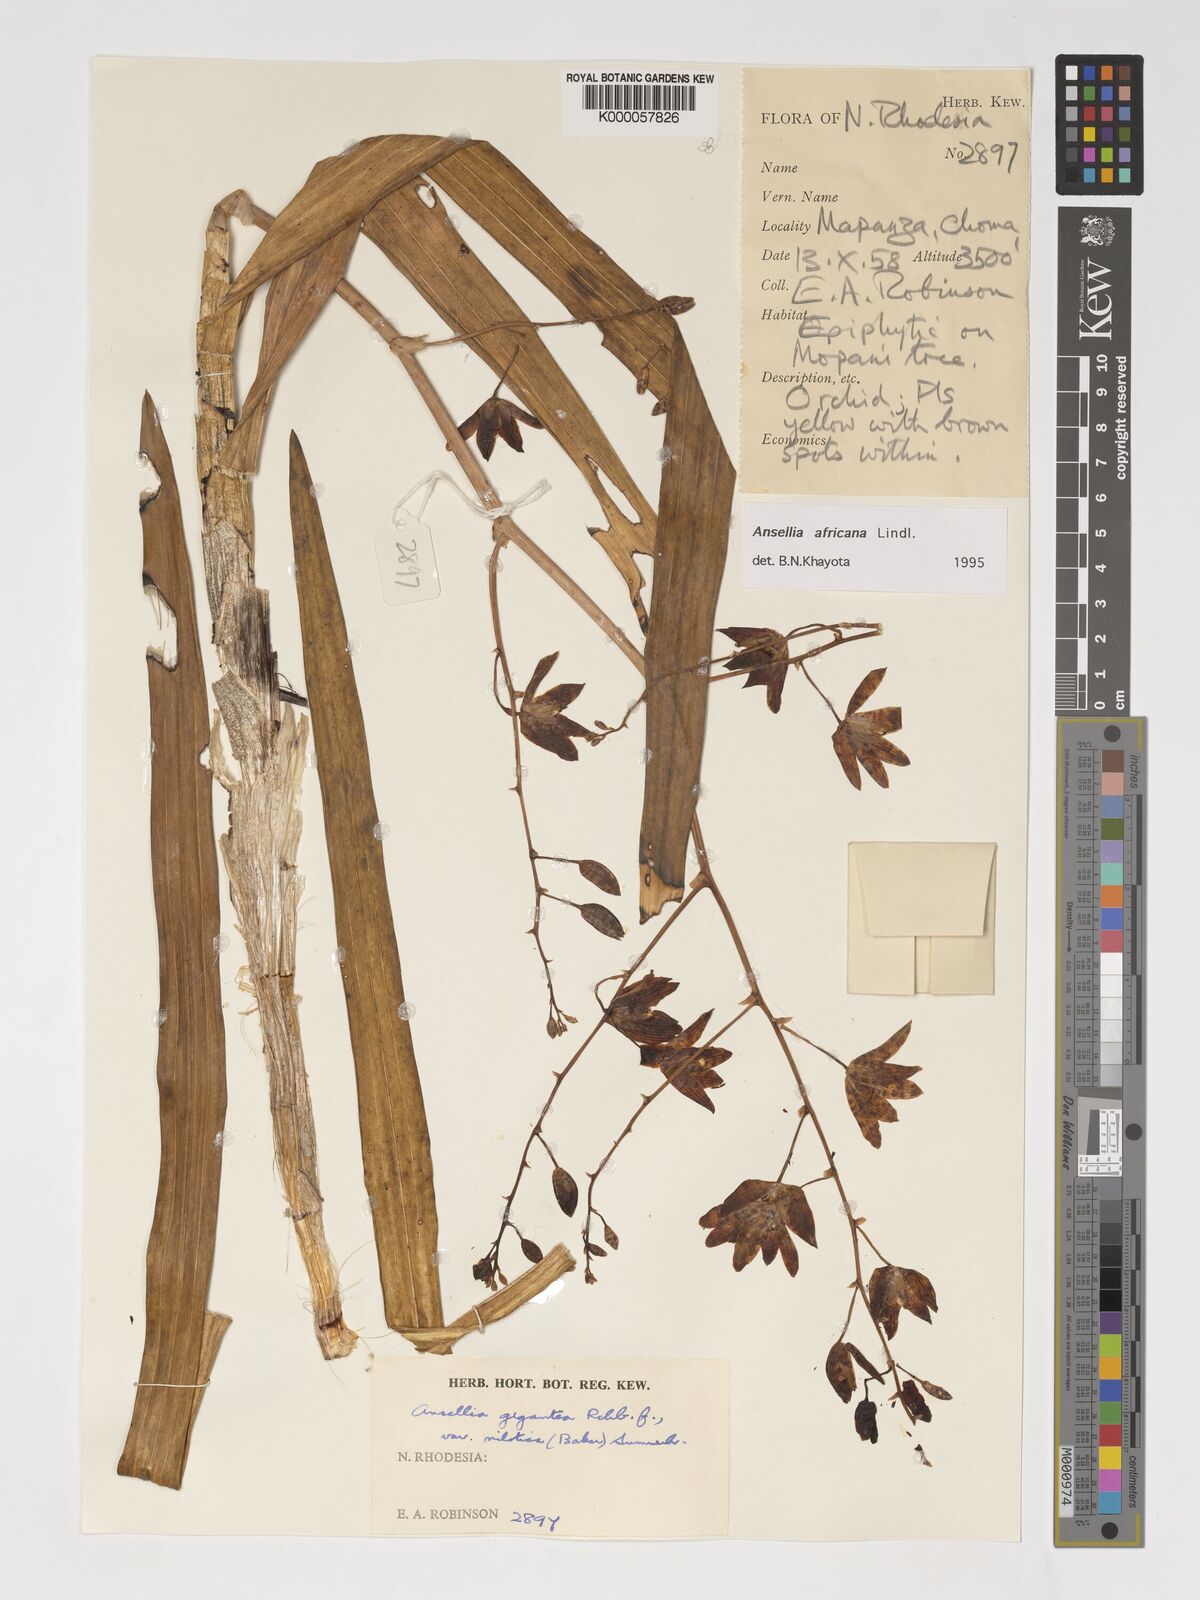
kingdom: Plantae
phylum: Tracheophyta
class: Liliopsida
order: Asparagales
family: Orchidaceae
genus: Ansellia
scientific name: Ansellia africana
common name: African ansellia
